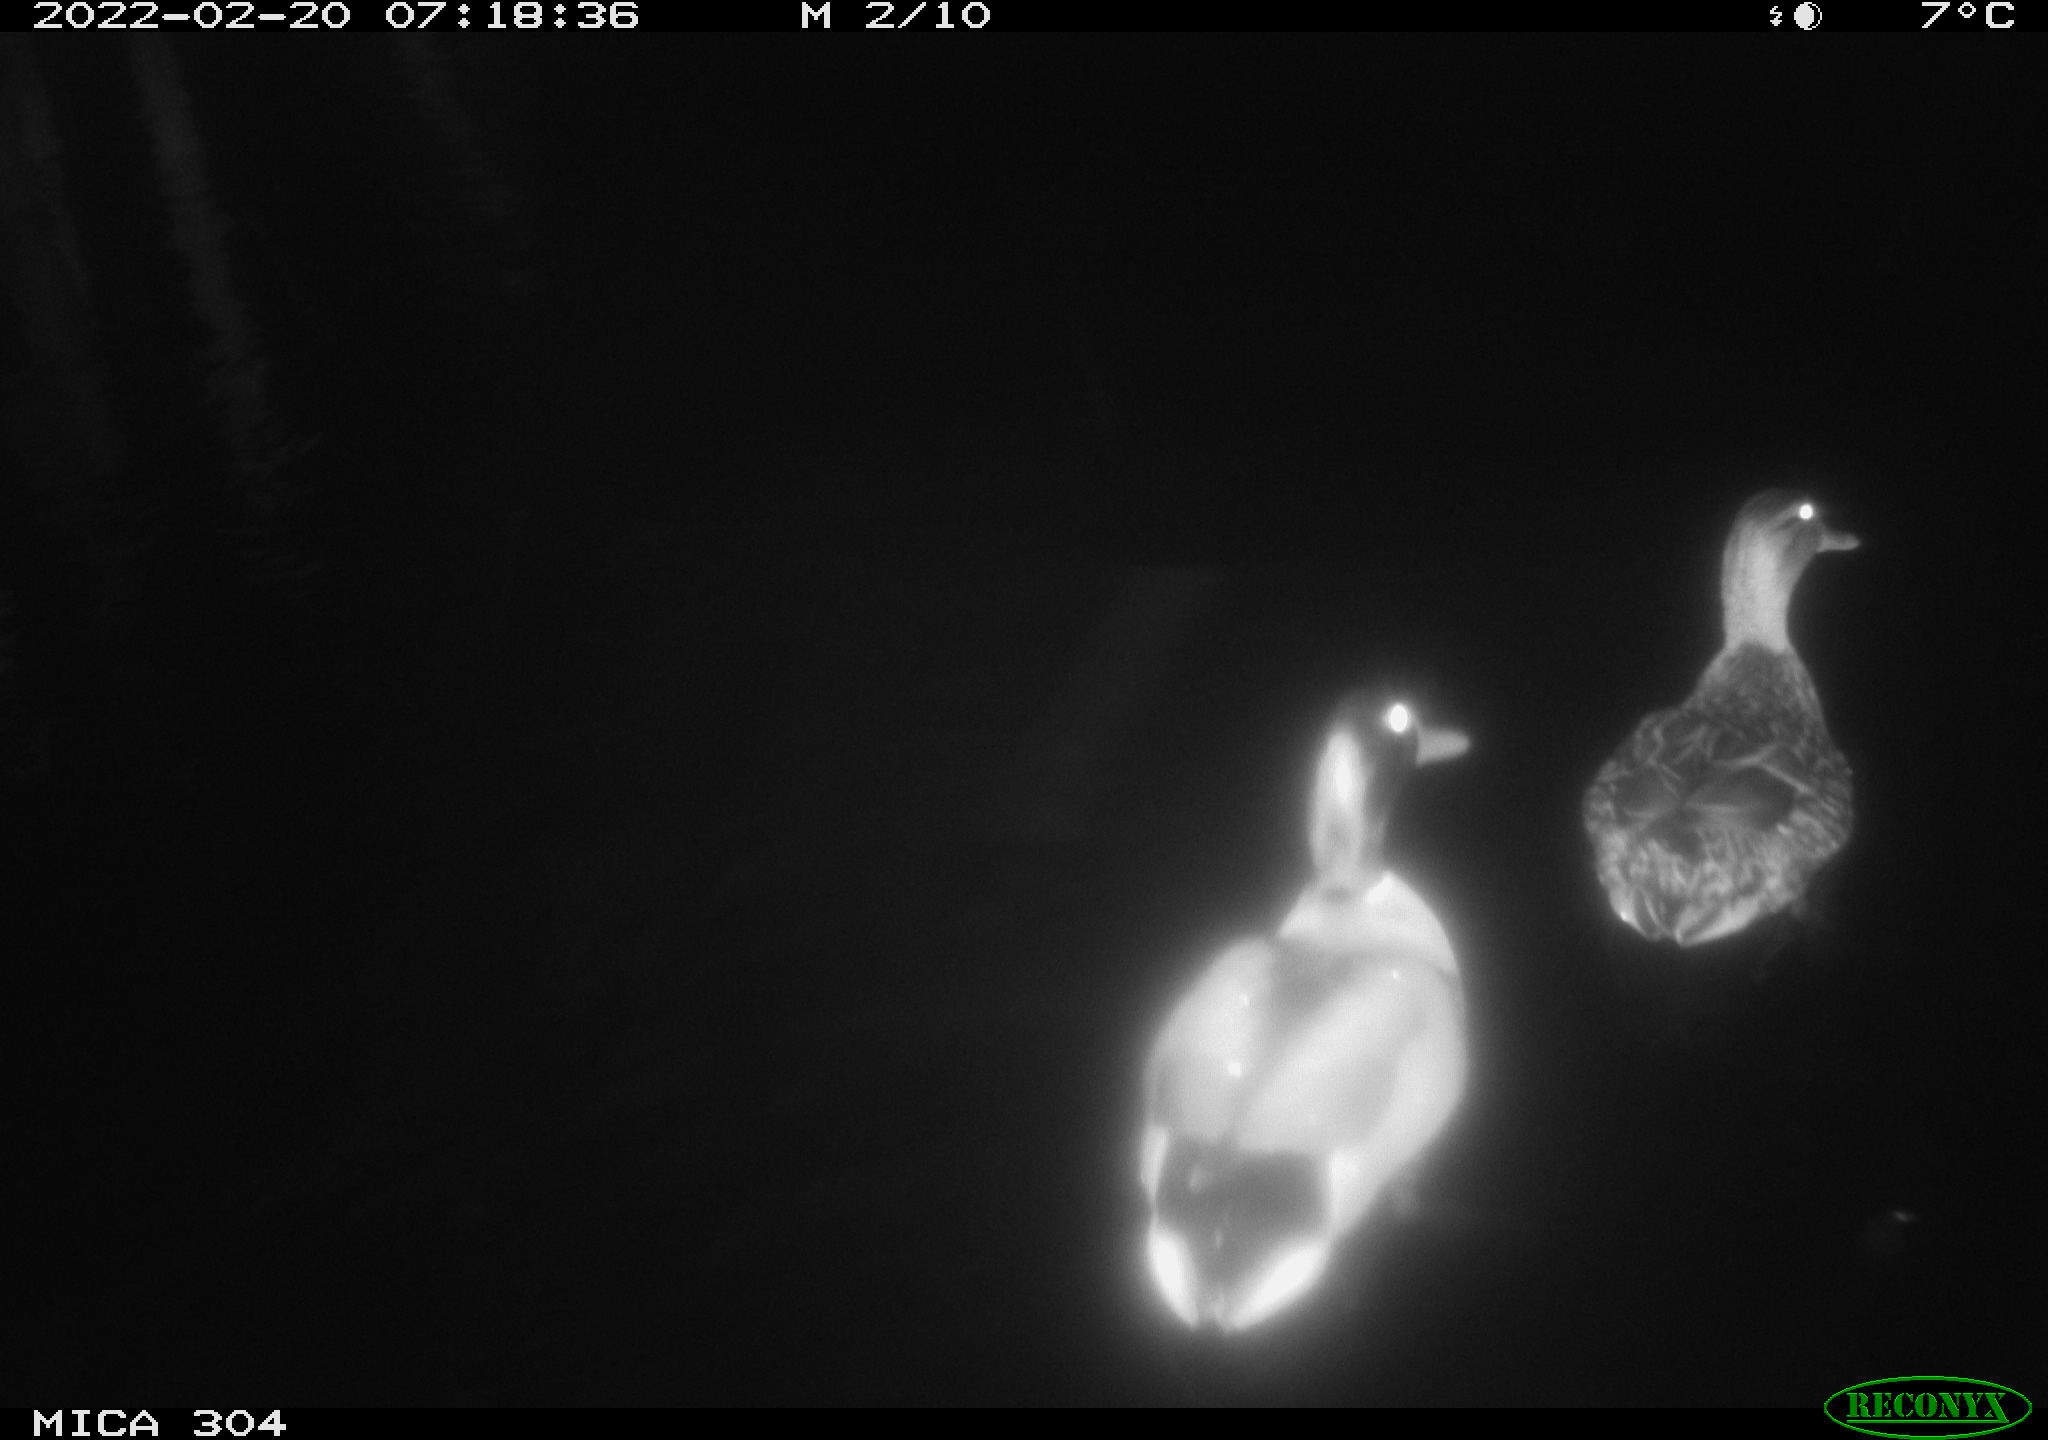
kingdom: Animalia
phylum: Chordata
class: Aves
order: Anseriformes
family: Anatidae
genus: Anas
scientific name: Anas platyrhynchos
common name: Mallard
